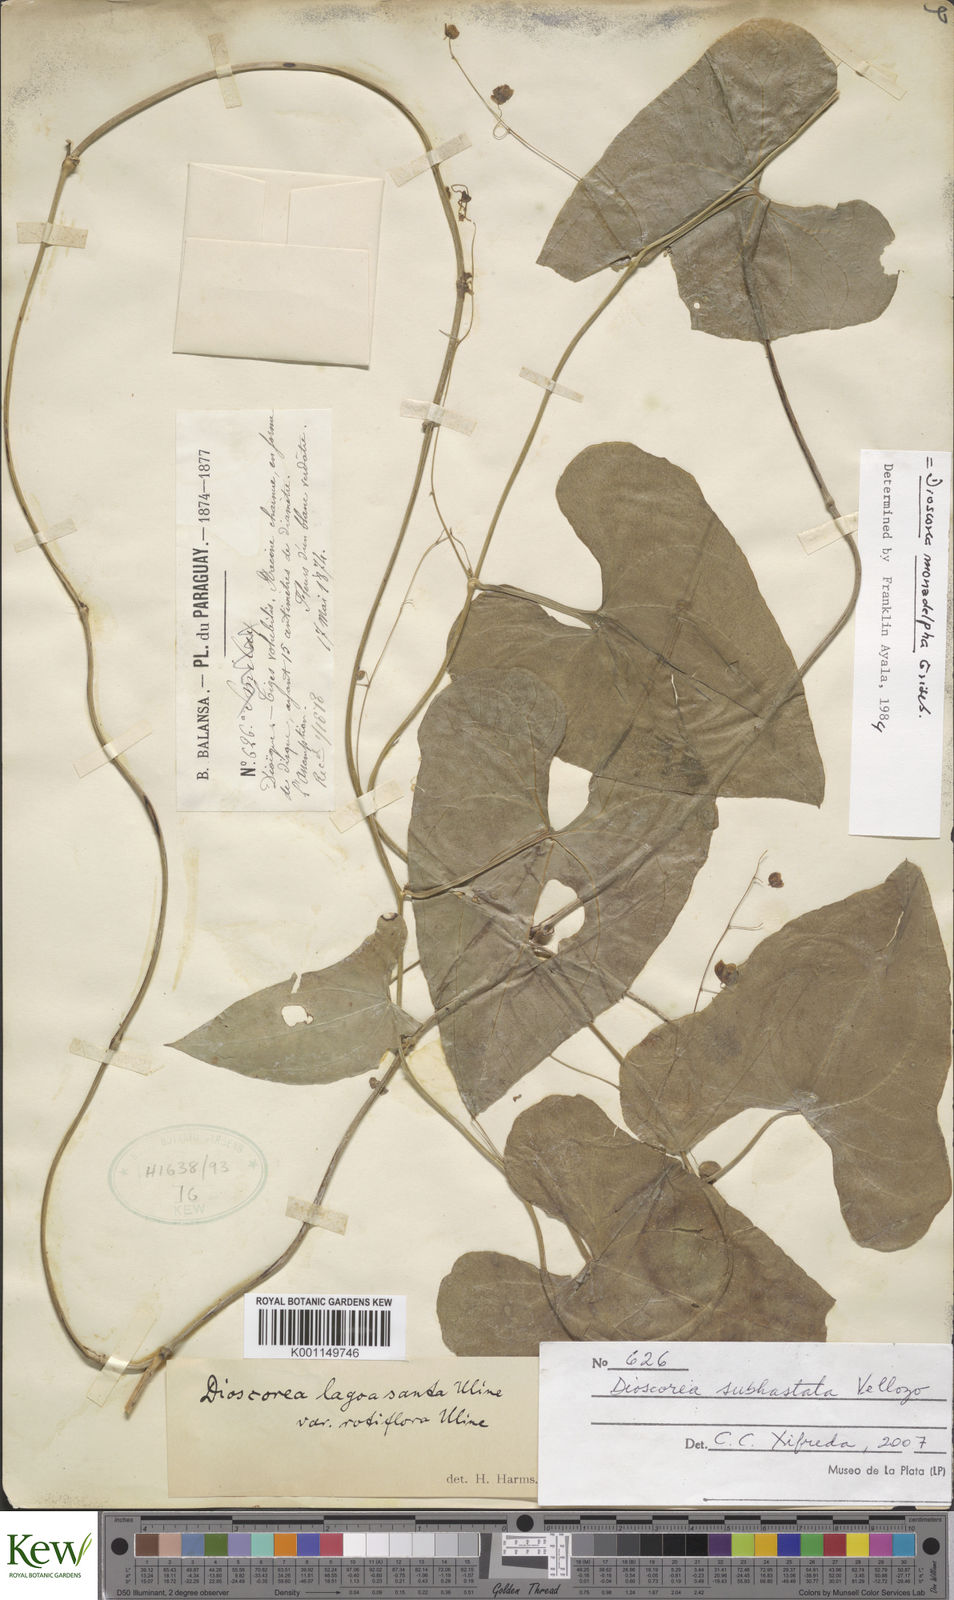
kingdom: Plantae
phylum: Tracheophyta
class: Liliopsida
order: Dioscoreales
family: Dioscoreaceae
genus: Dioscorea
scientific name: Dioscorea monadelpha
